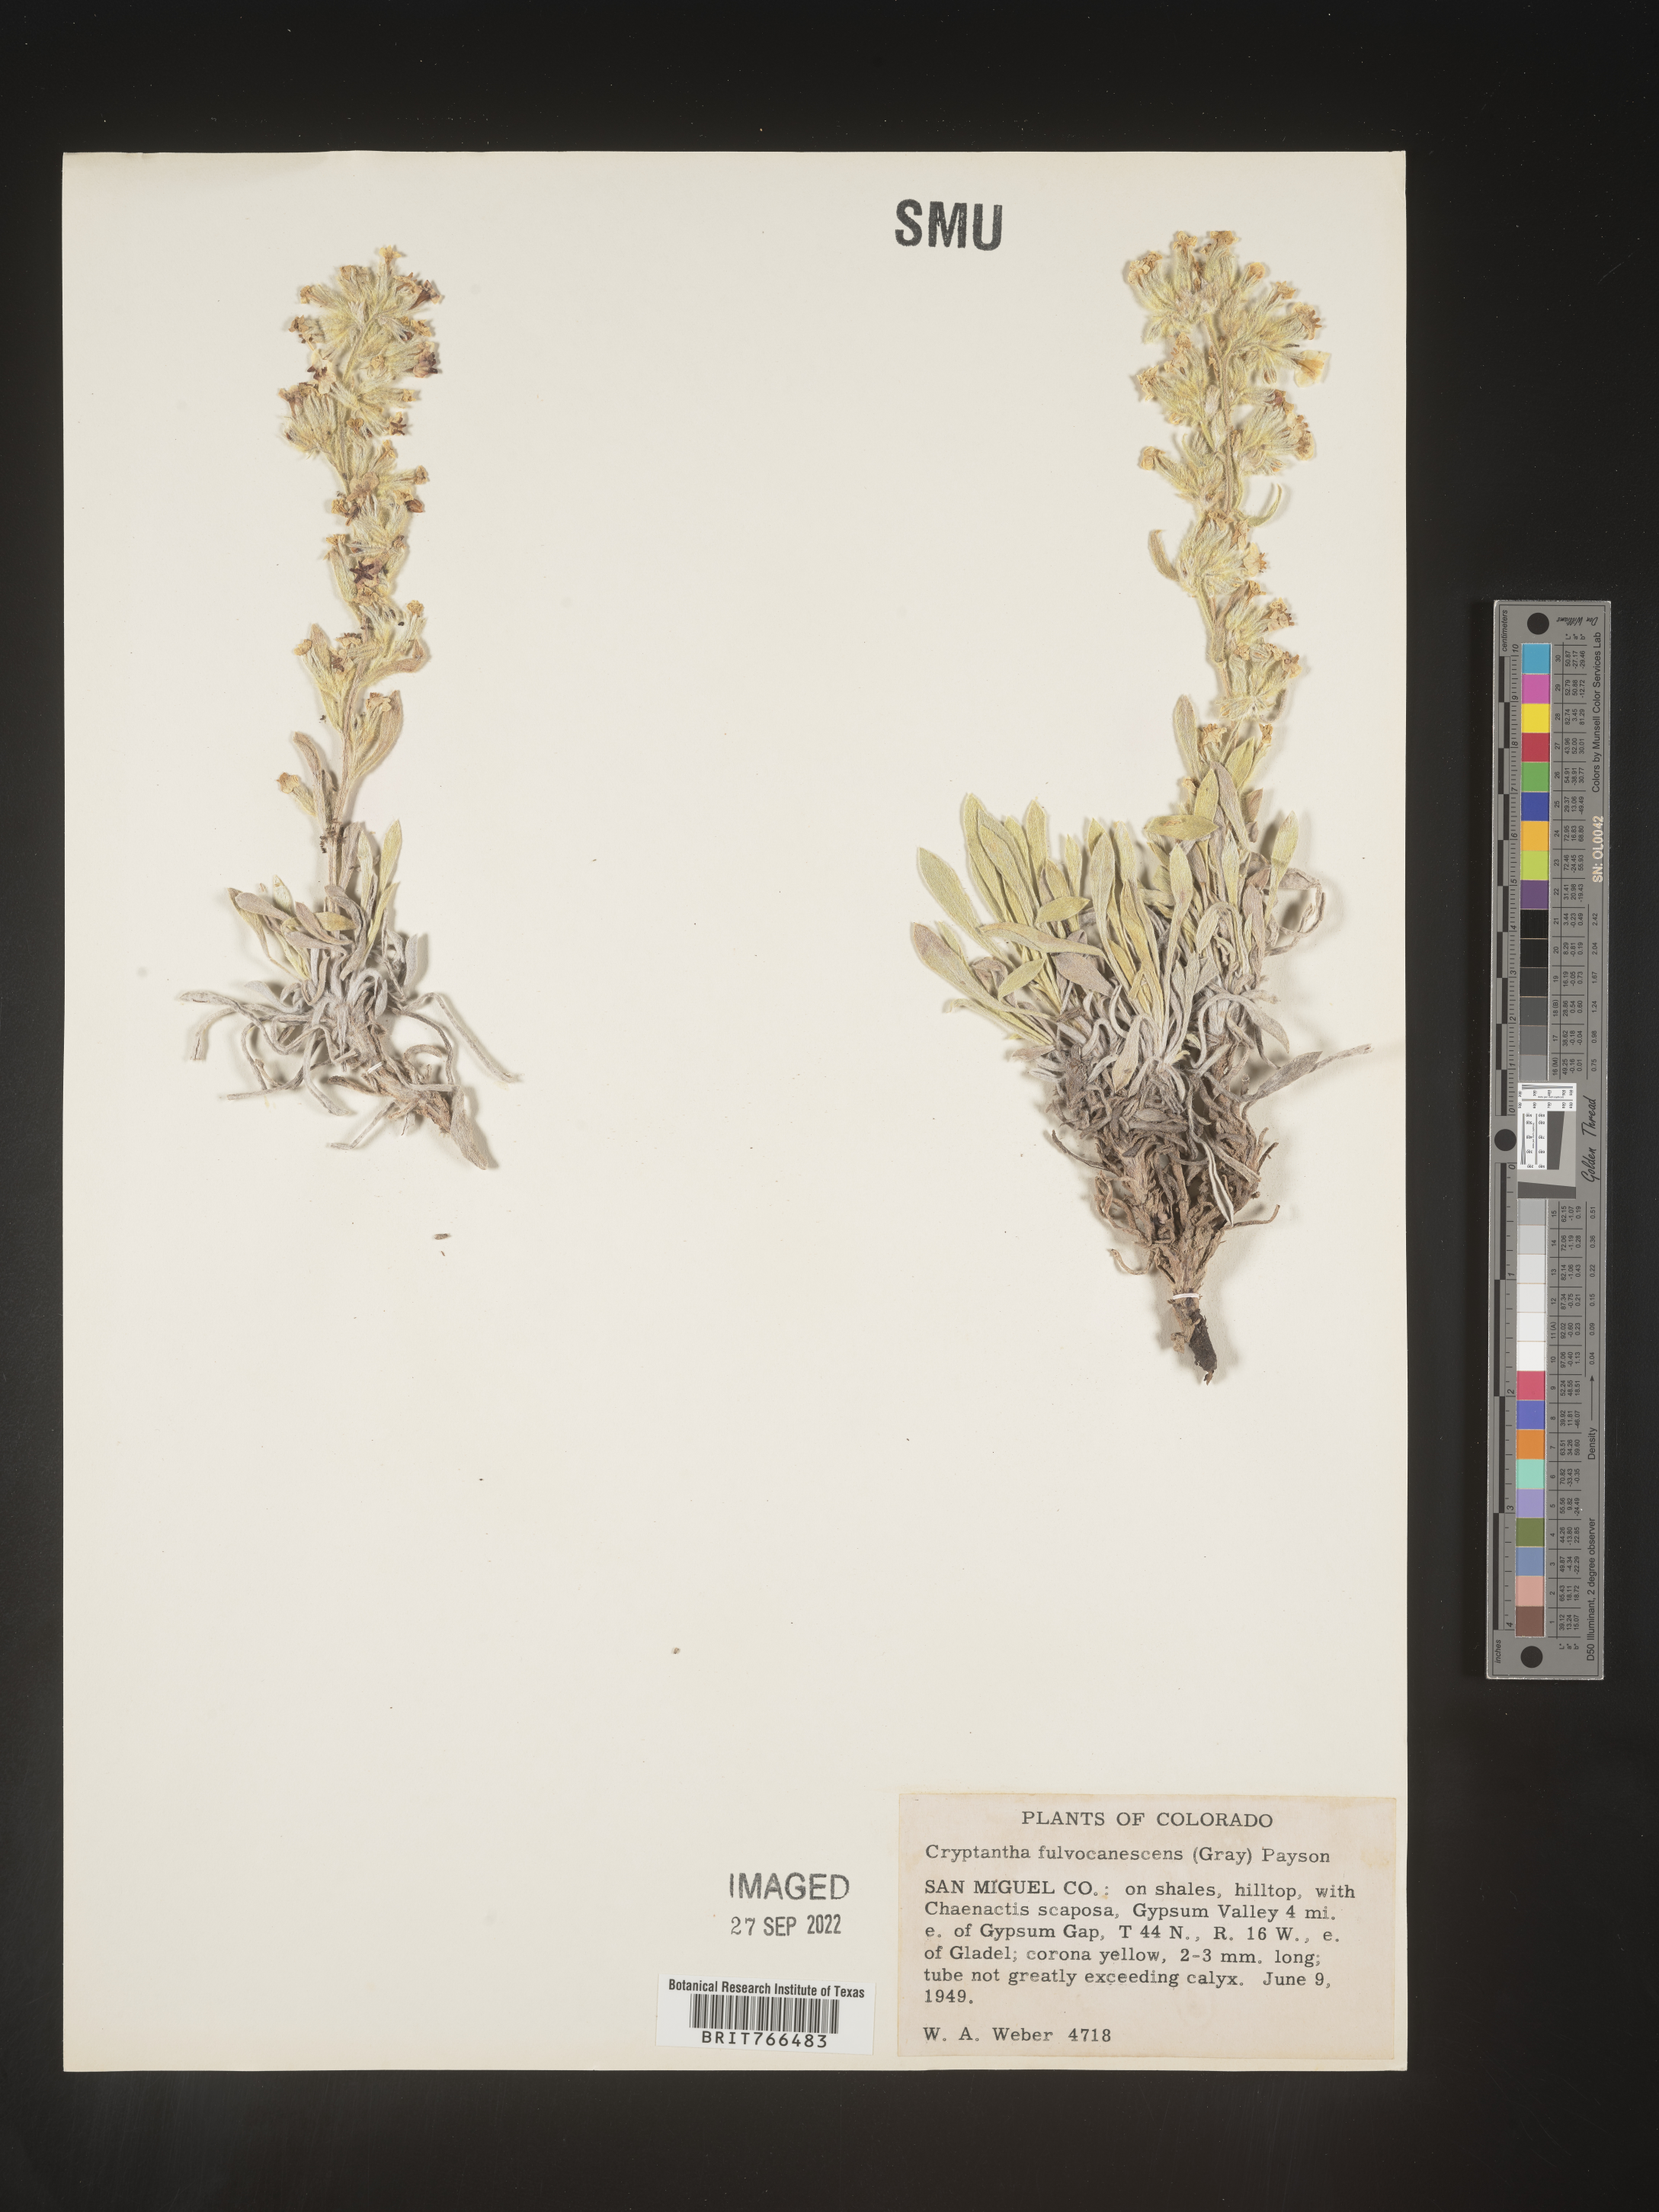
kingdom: Plantae
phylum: Tracheophyta
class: Magnoliopsida
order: Boraginales
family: Boraginaceae
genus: Oreocarya
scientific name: Oreocarya fulvocanescens
